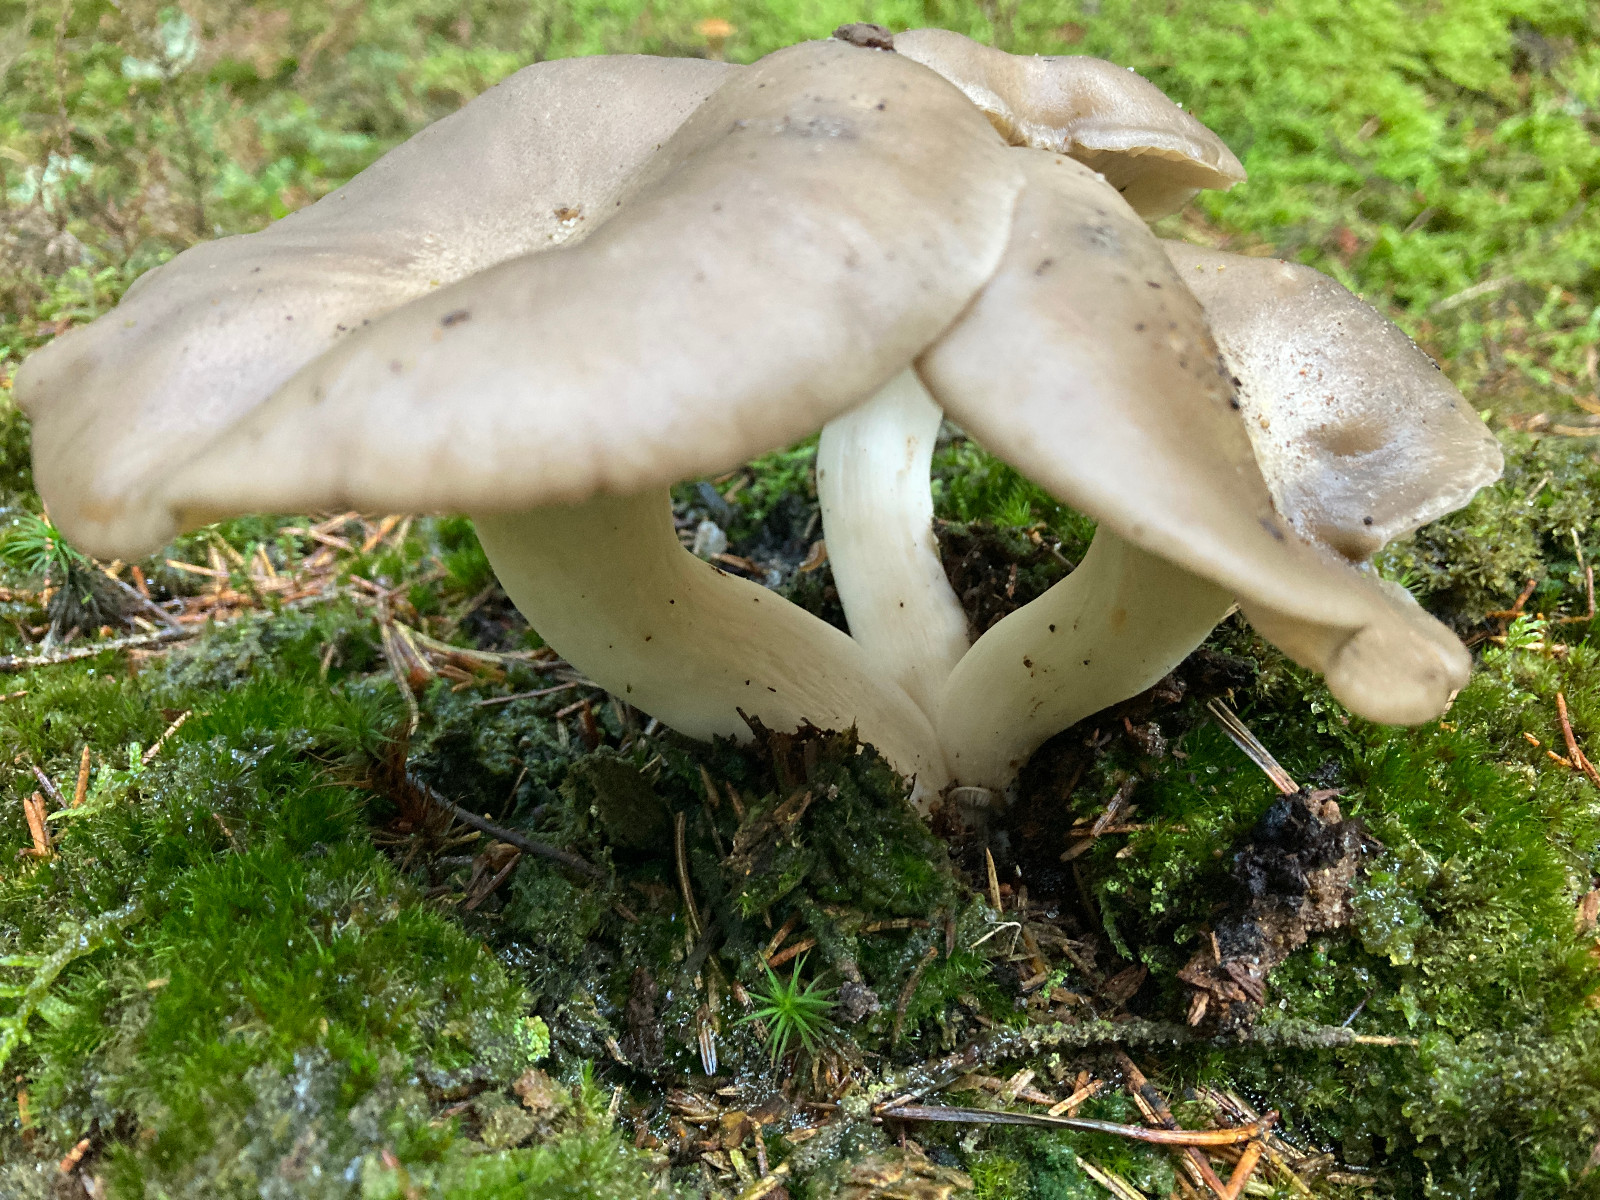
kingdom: Fungi
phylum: Basidiomycota
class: Agaricomycetes
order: Agaricales
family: Lyophyllaceae
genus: Lyophyllum
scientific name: Lyophyllum shimeji
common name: shimeji-gråblad
